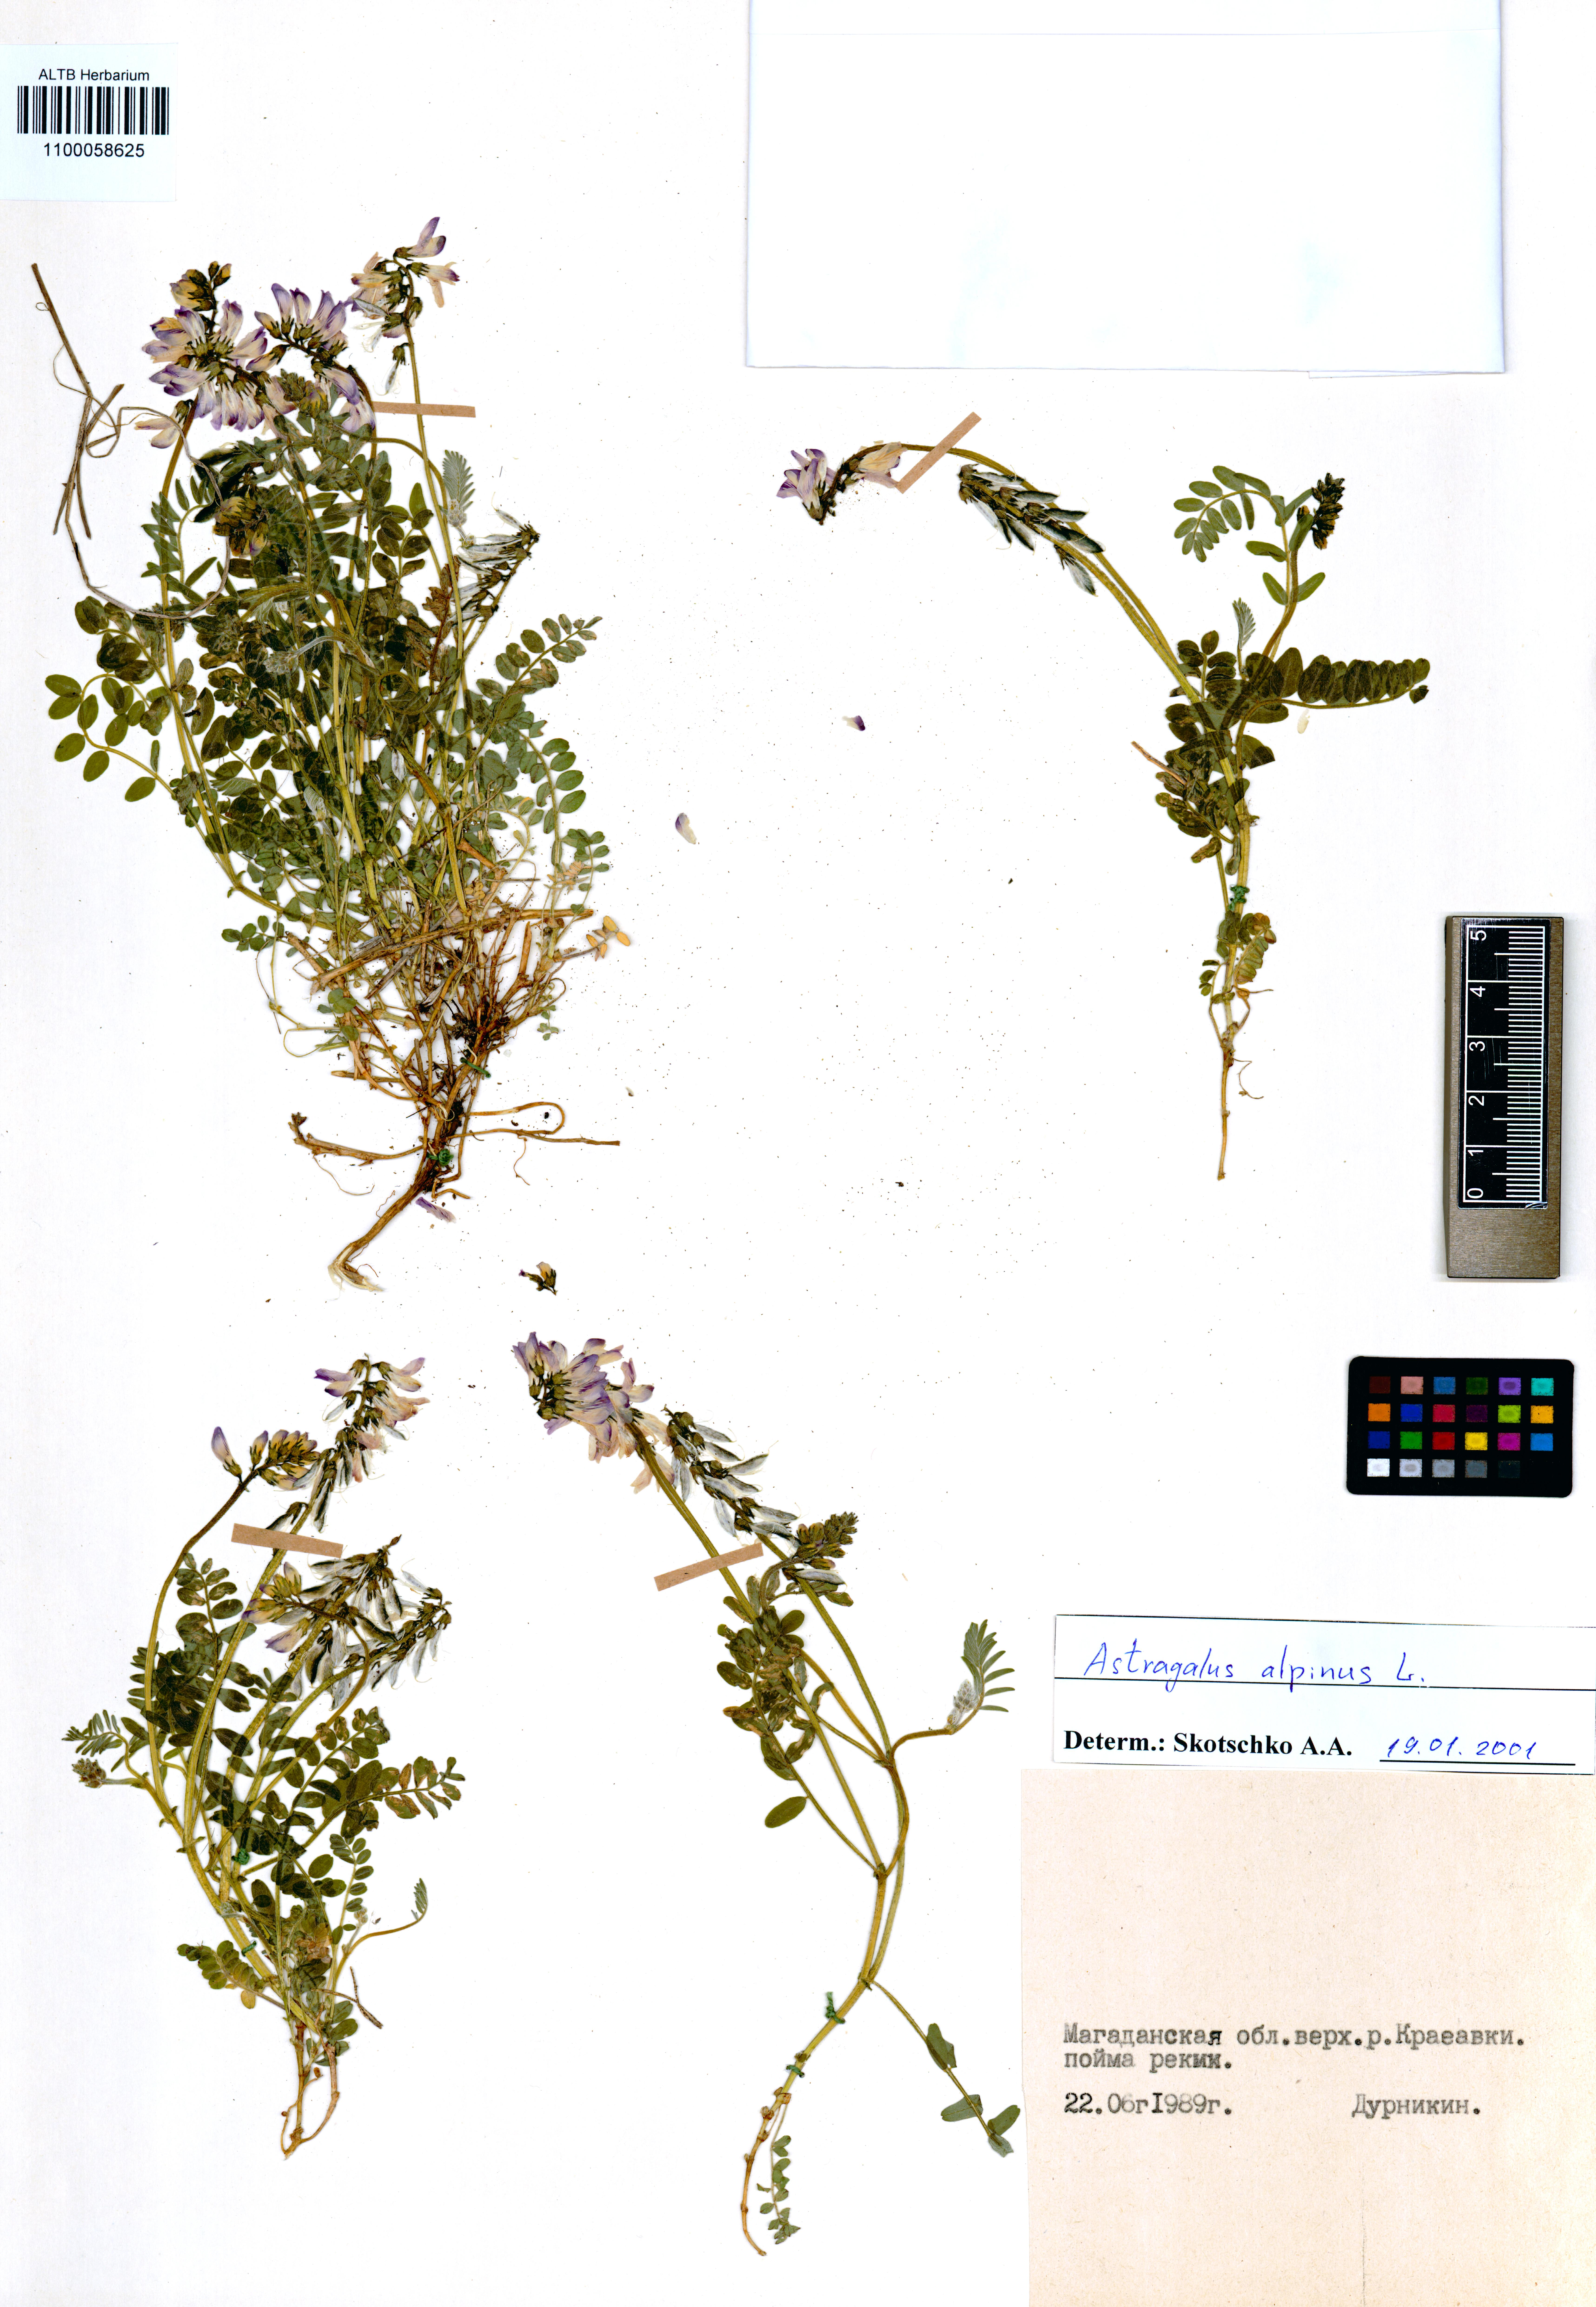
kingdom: Plantae
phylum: Tracheophyta
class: Magnoliopsida
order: Fabales
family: Fabaceae
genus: Astragalus
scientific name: Astragalus alpinus
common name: Alpine milk-vetch
